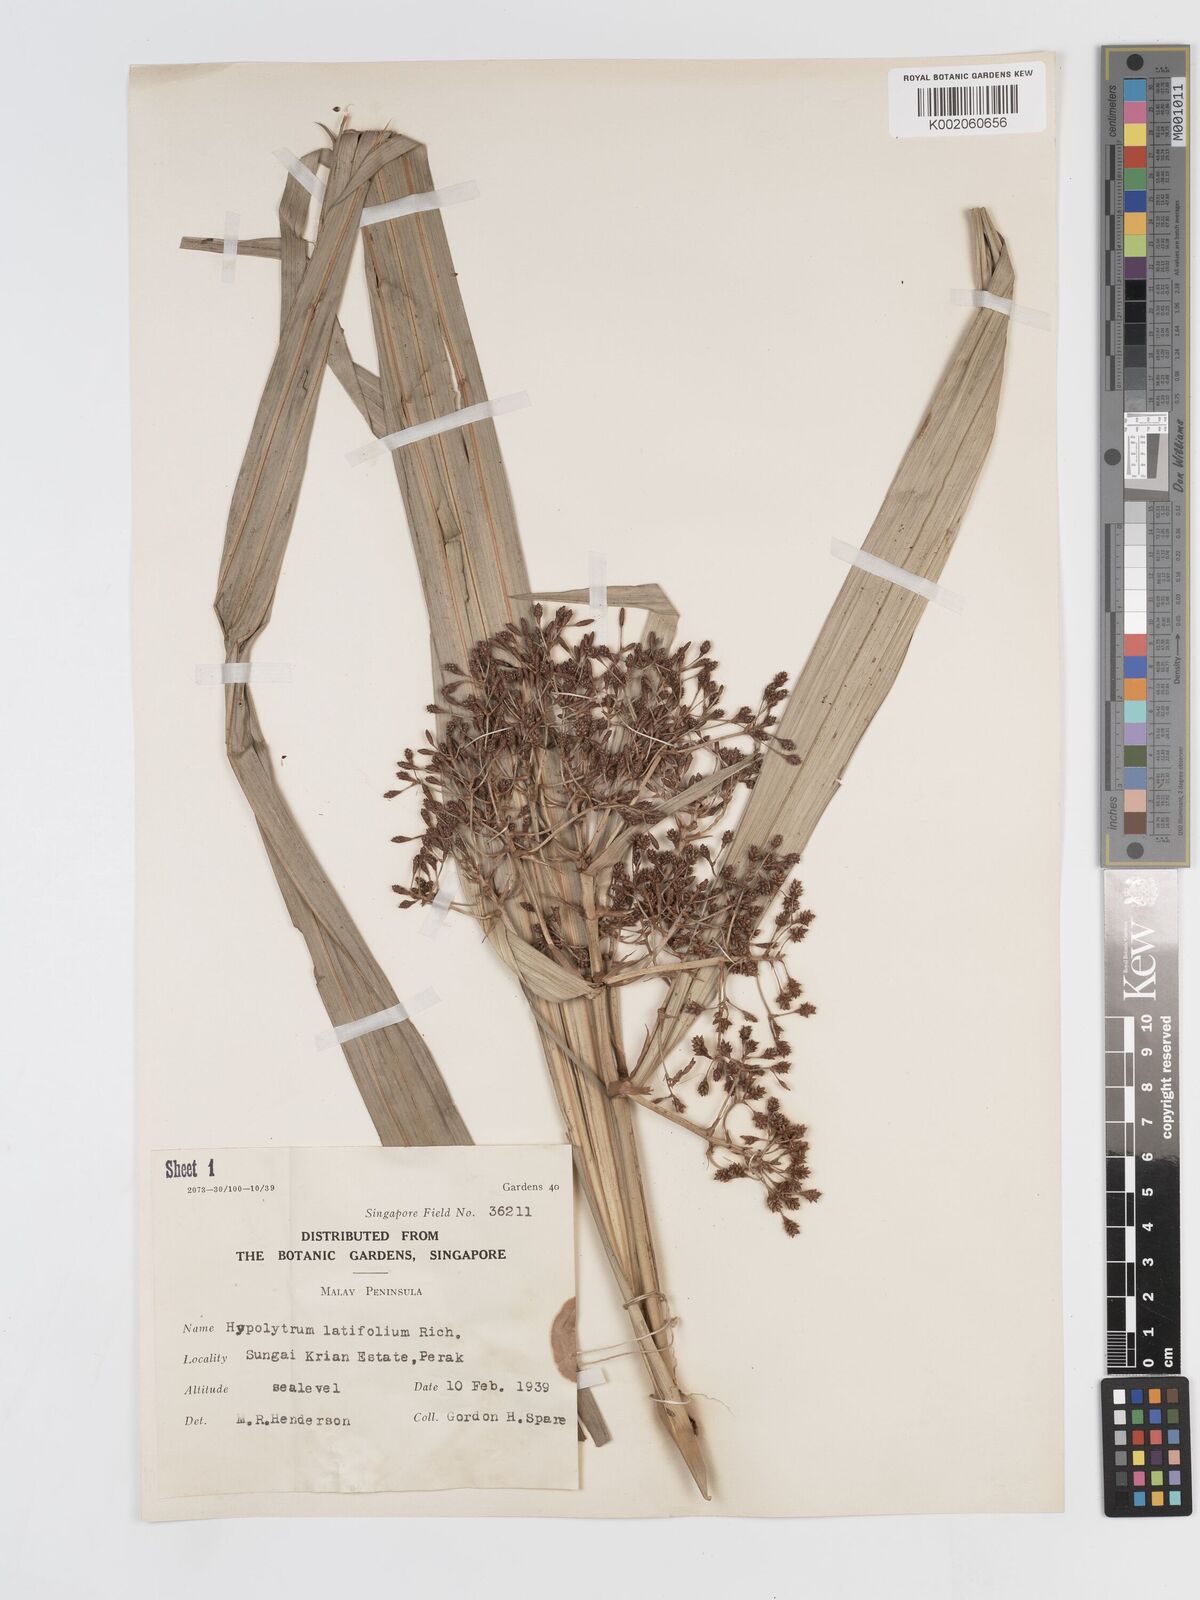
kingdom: Plantae
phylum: Tracheophyta
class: Liliopsida
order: Poales
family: Cyperaceae
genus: Hypolytrum
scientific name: Hypolytrum nemorum
